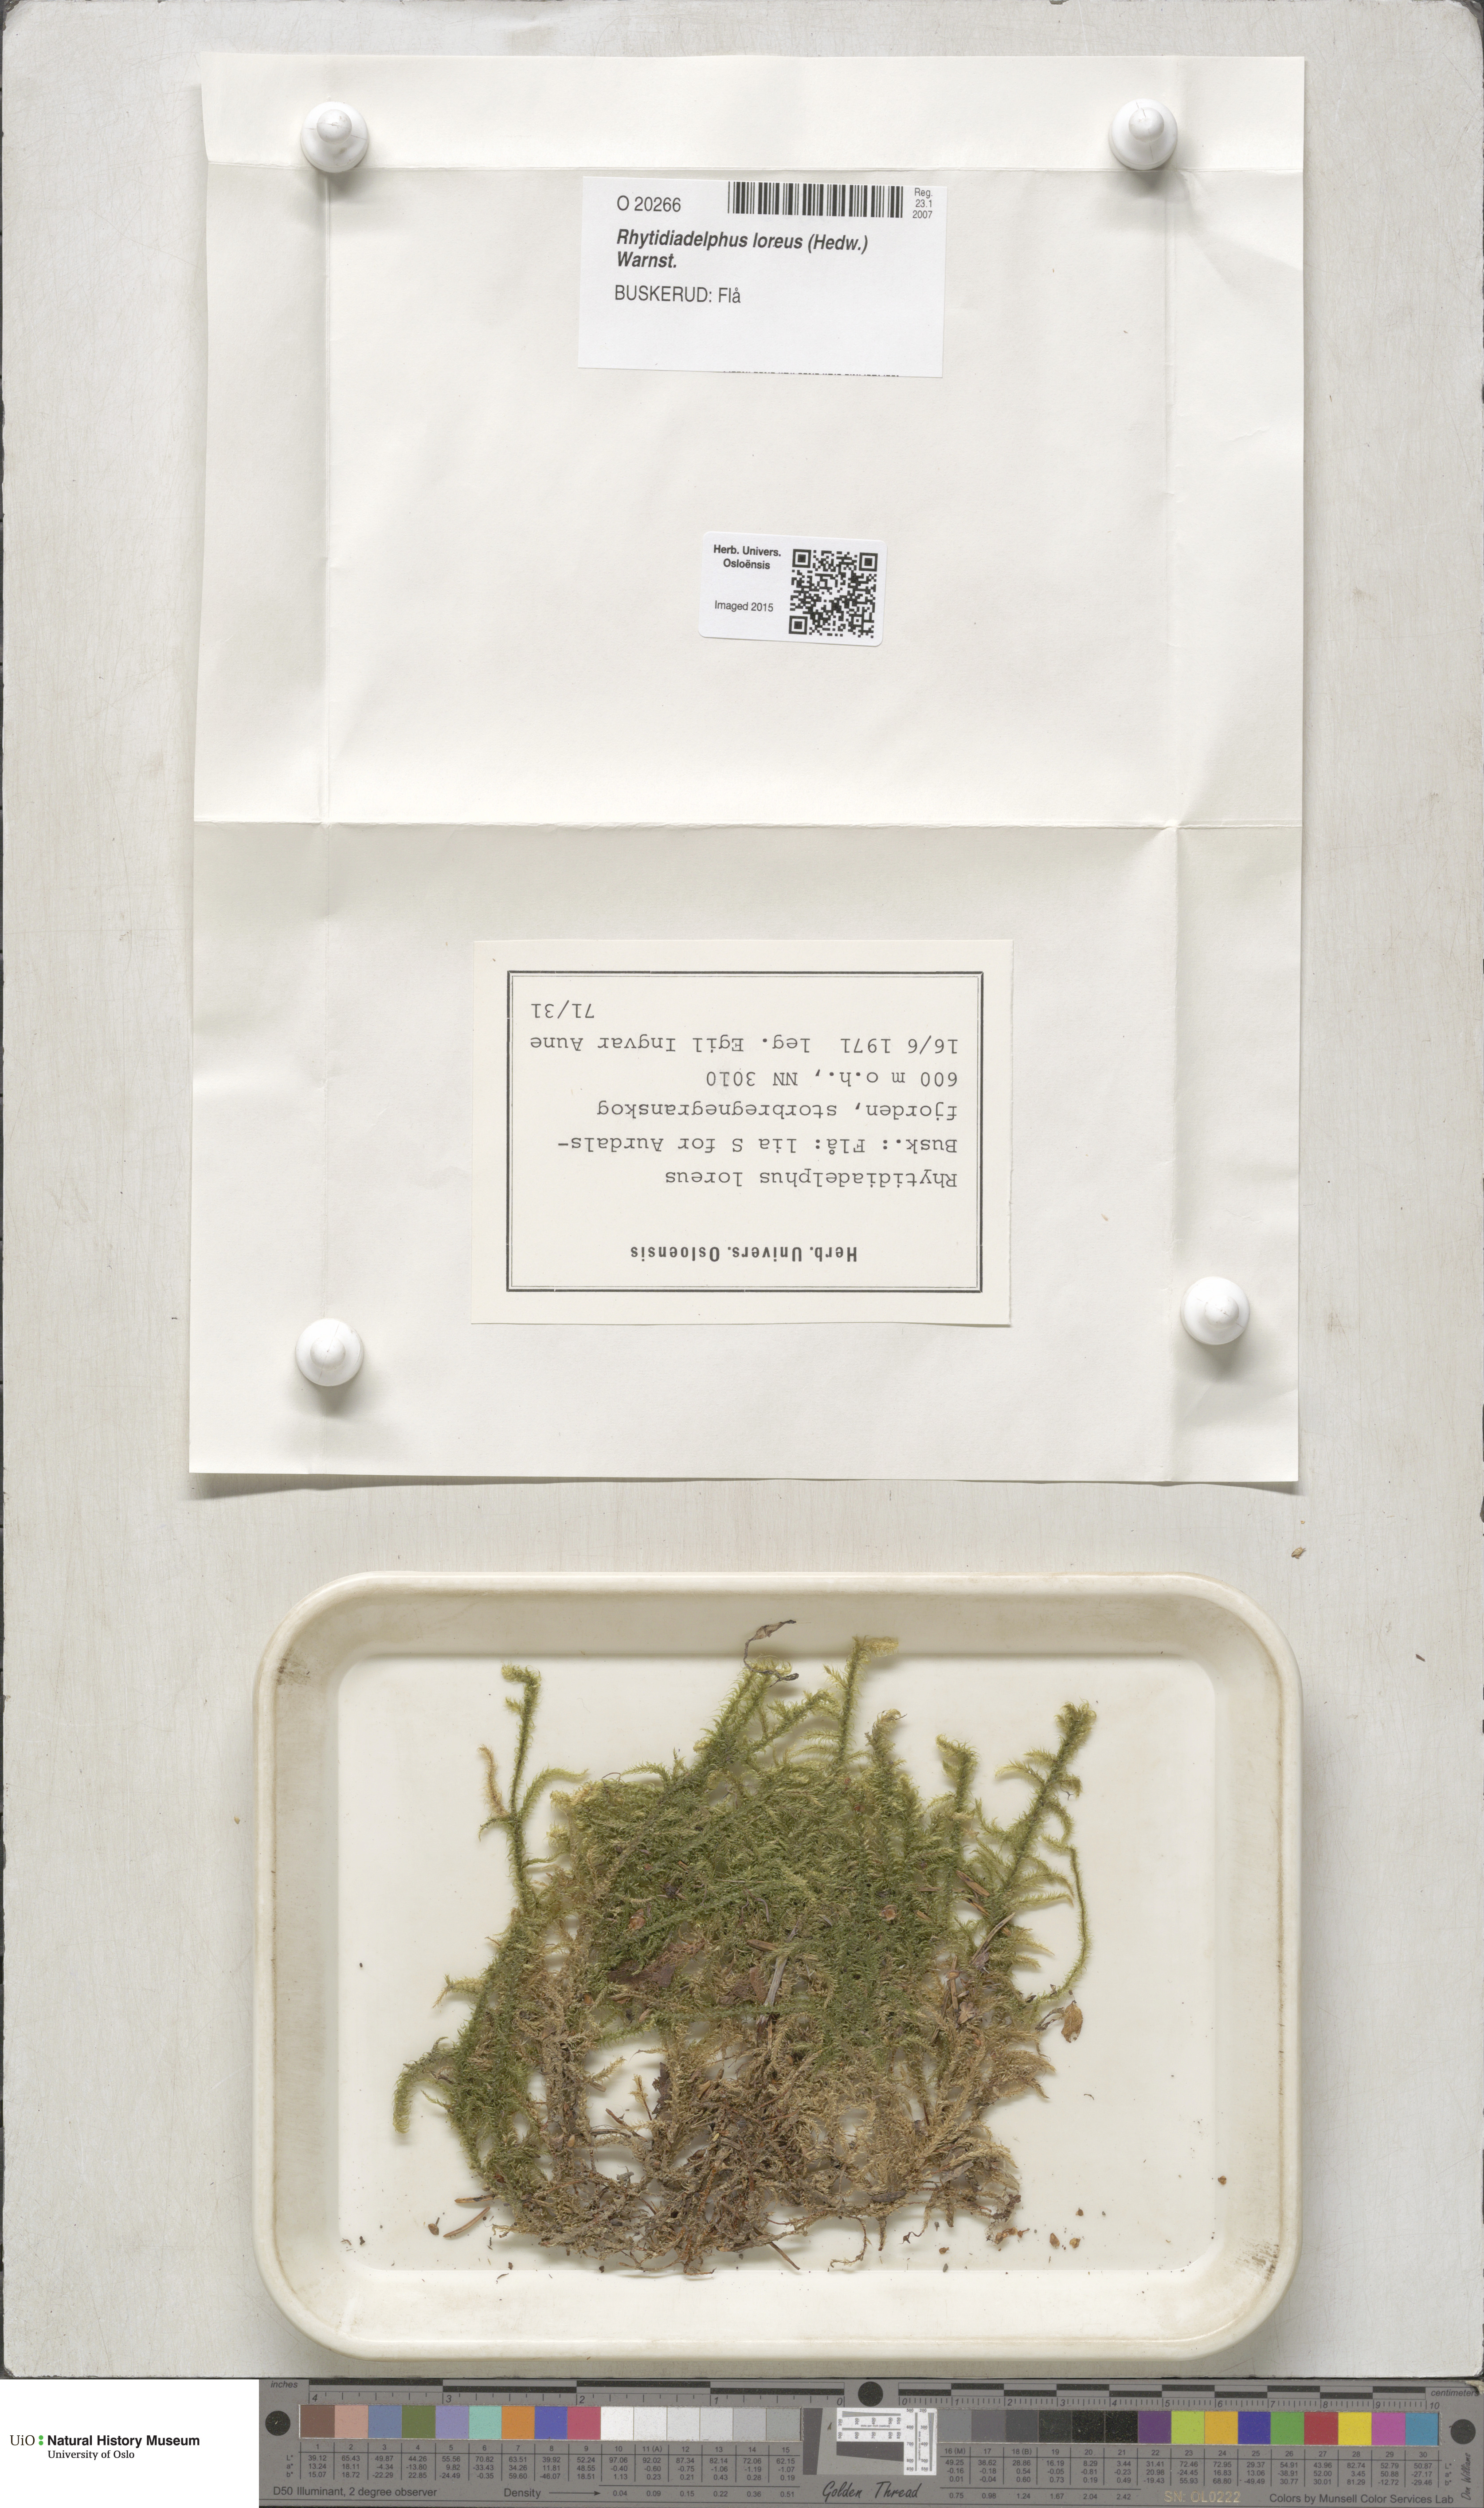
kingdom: Plantae
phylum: Bryophyta
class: Bryopsida
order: Hypnales
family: Hylocomiaceae
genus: Rhytidiadelphus
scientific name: Rhytidiadelphus loreus
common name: Lanky moss
